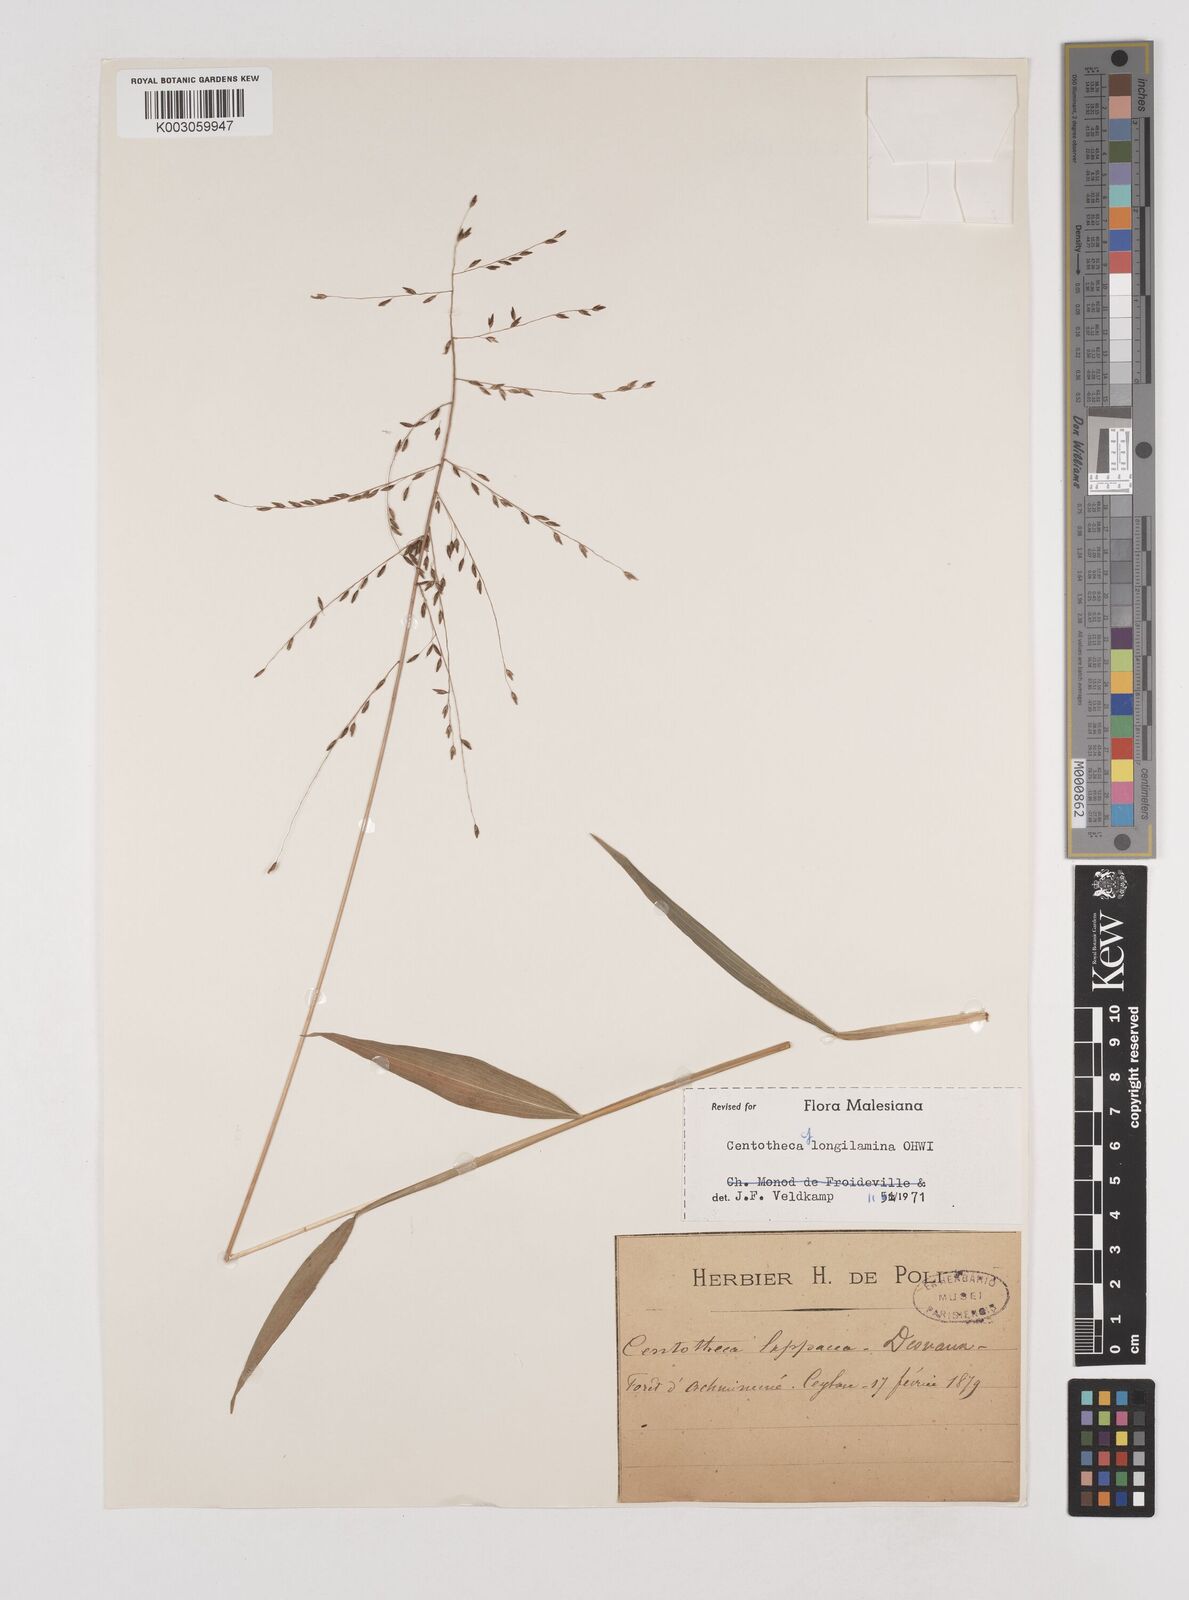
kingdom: Plantae
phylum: Tracheophyta
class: Liliopsida
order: Poales
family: Poaceae
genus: Centotheca
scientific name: Centotheca lappacea
